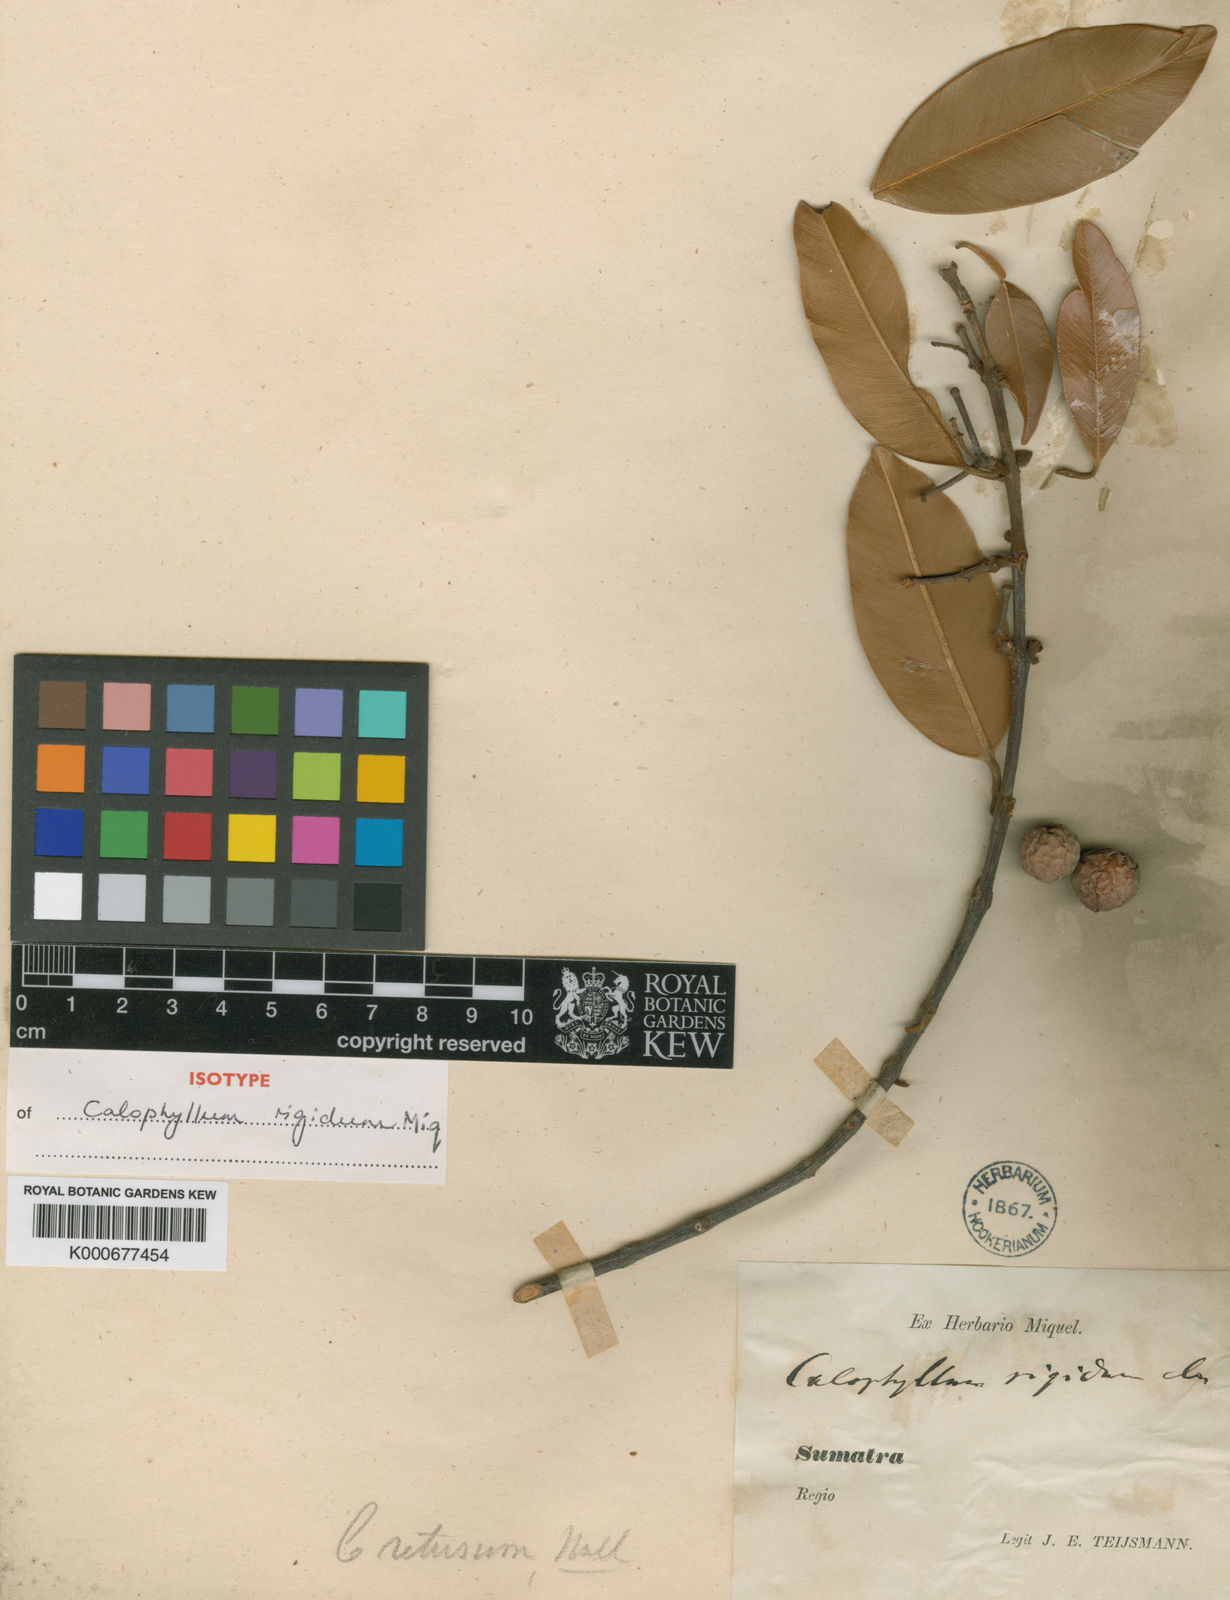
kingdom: Plantae
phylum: Tracheophyta
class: Magnoliopsida
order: Malpighiales
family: Calophyllaceae
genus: Calophyllum
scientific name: Calophyllum rigidum
